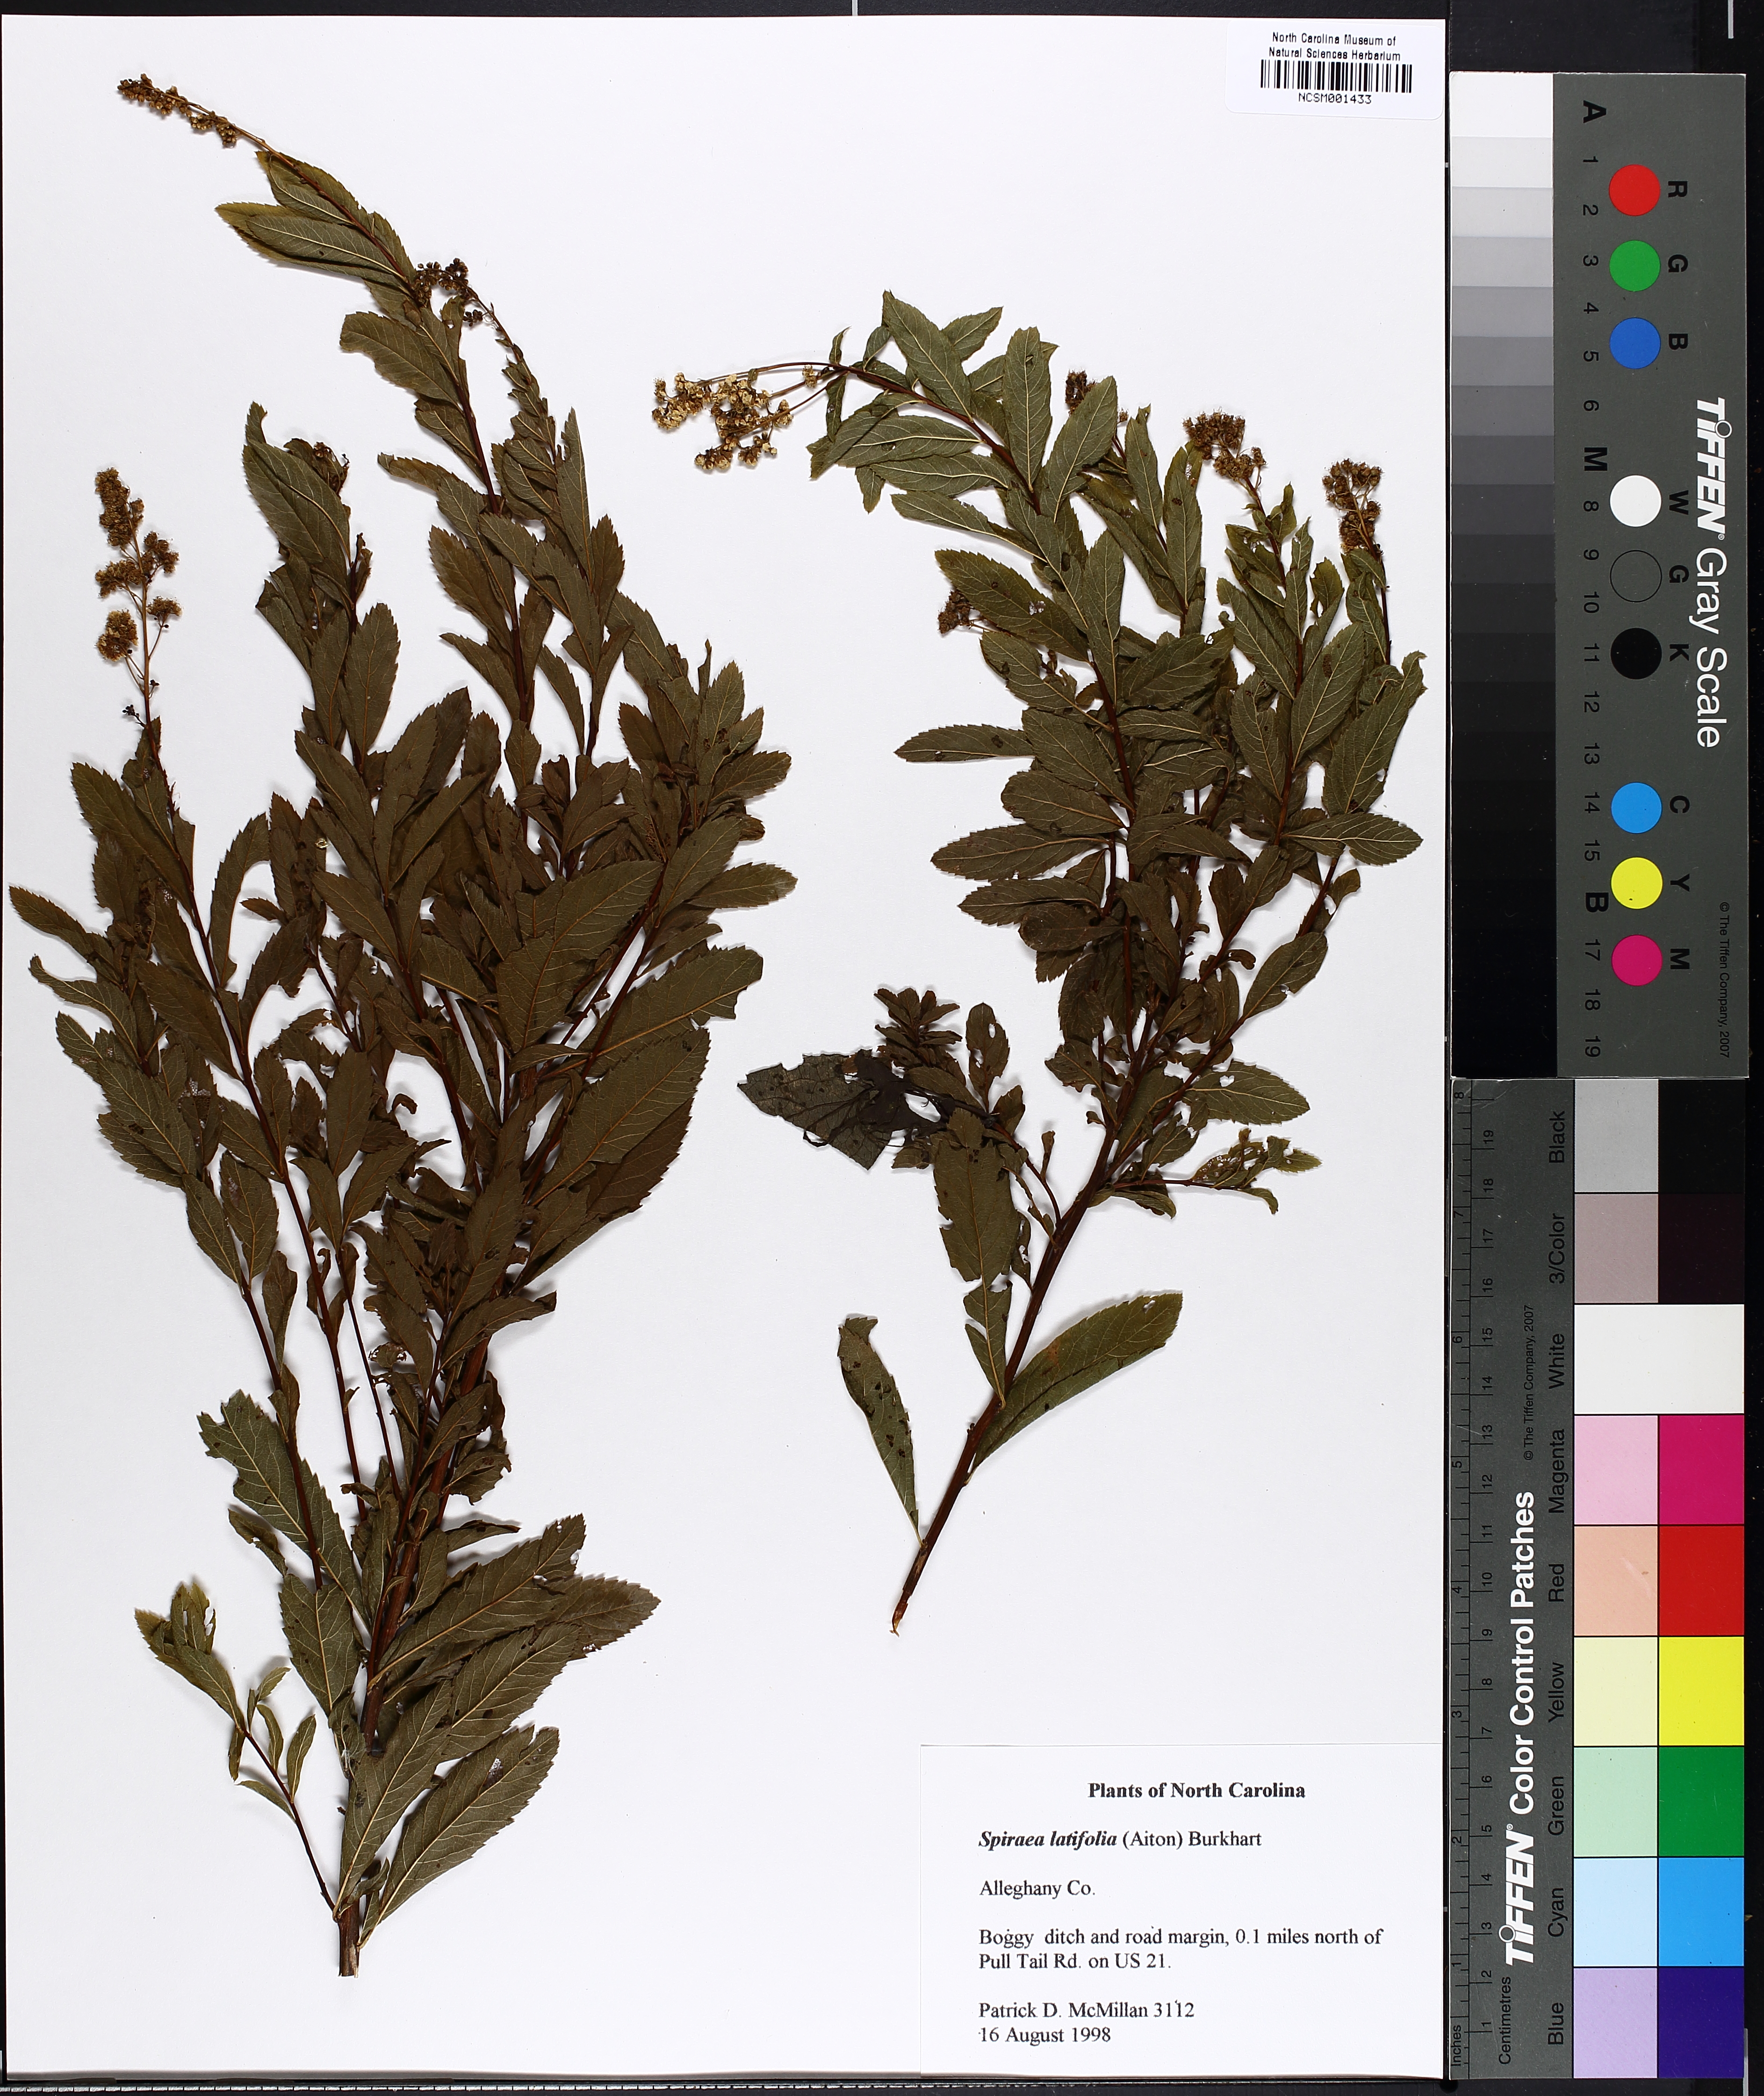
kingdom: Plantae
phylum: Tracheophyta
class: Magnoliopsida
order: Rosales
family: Rosaceae
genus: Spiraea
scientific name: Spiraea alba
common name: Pale bridewort
